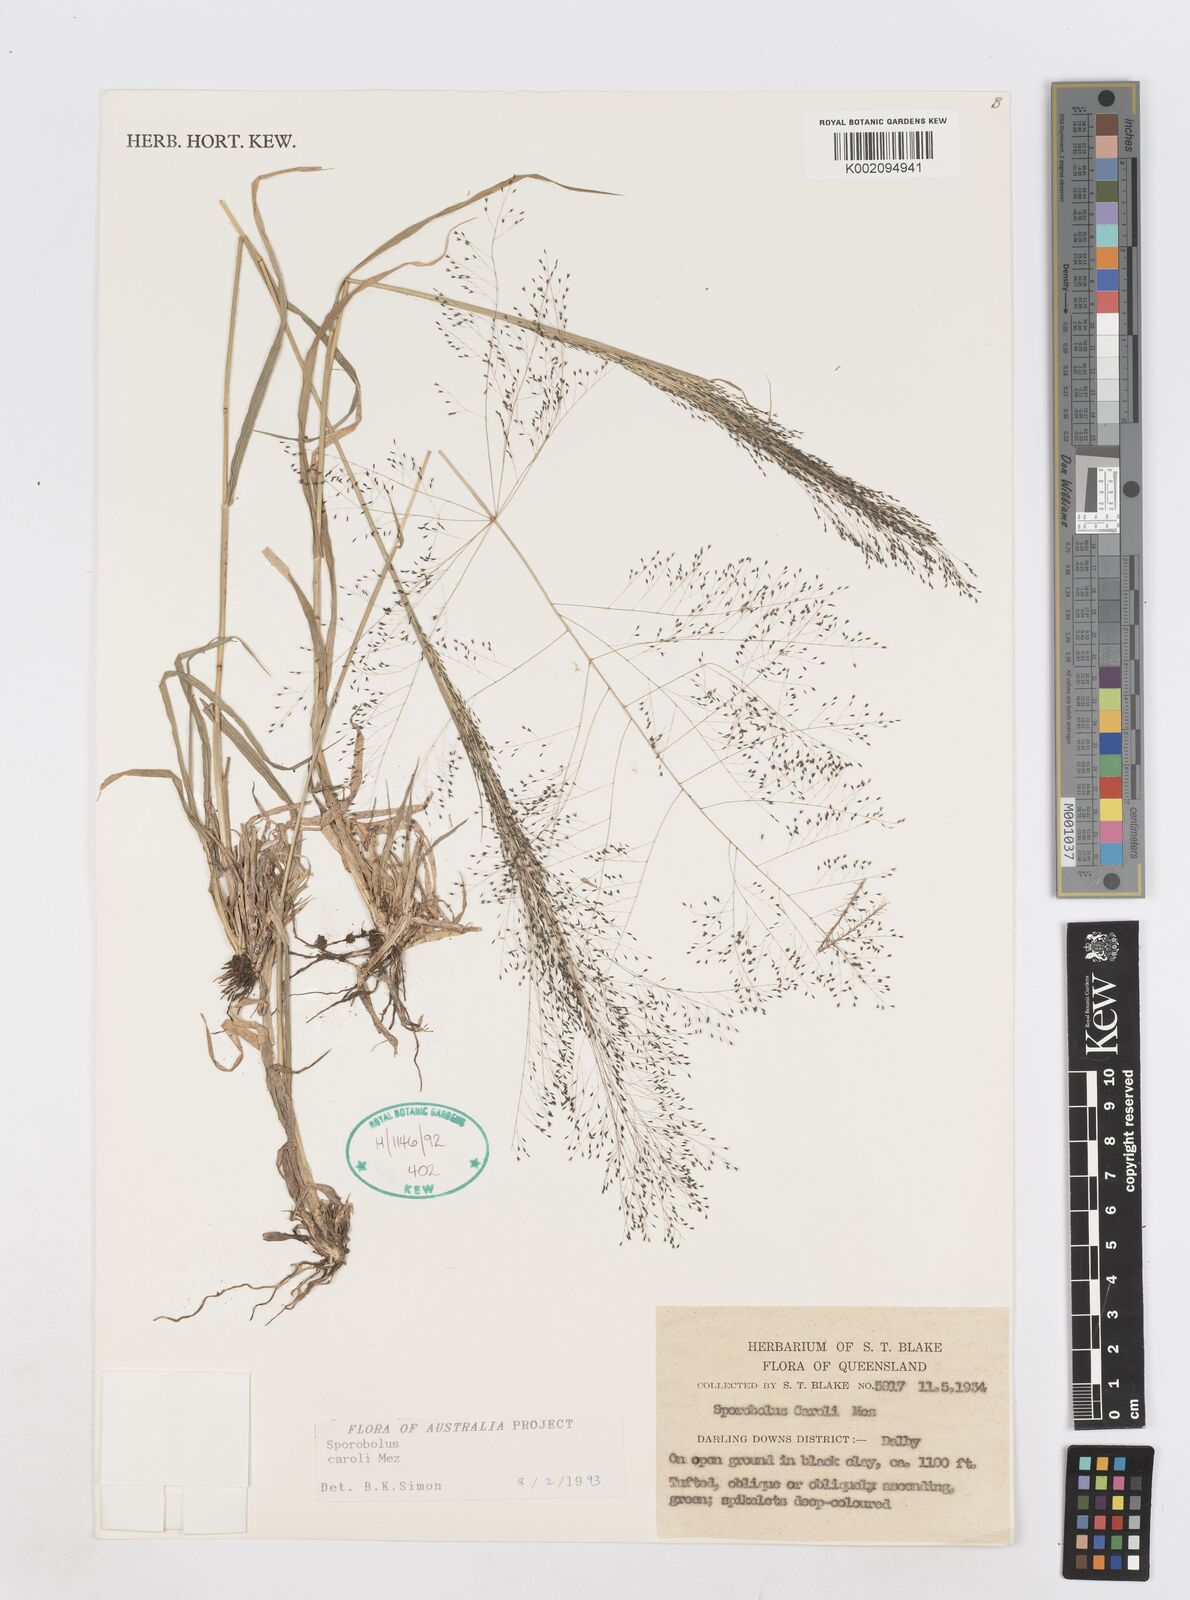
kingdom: Plantae
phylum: Tracheophyta
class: Liliopsida
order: Poales
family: Poaceae
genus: Sporobolus
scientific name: Sporobolus caroli
